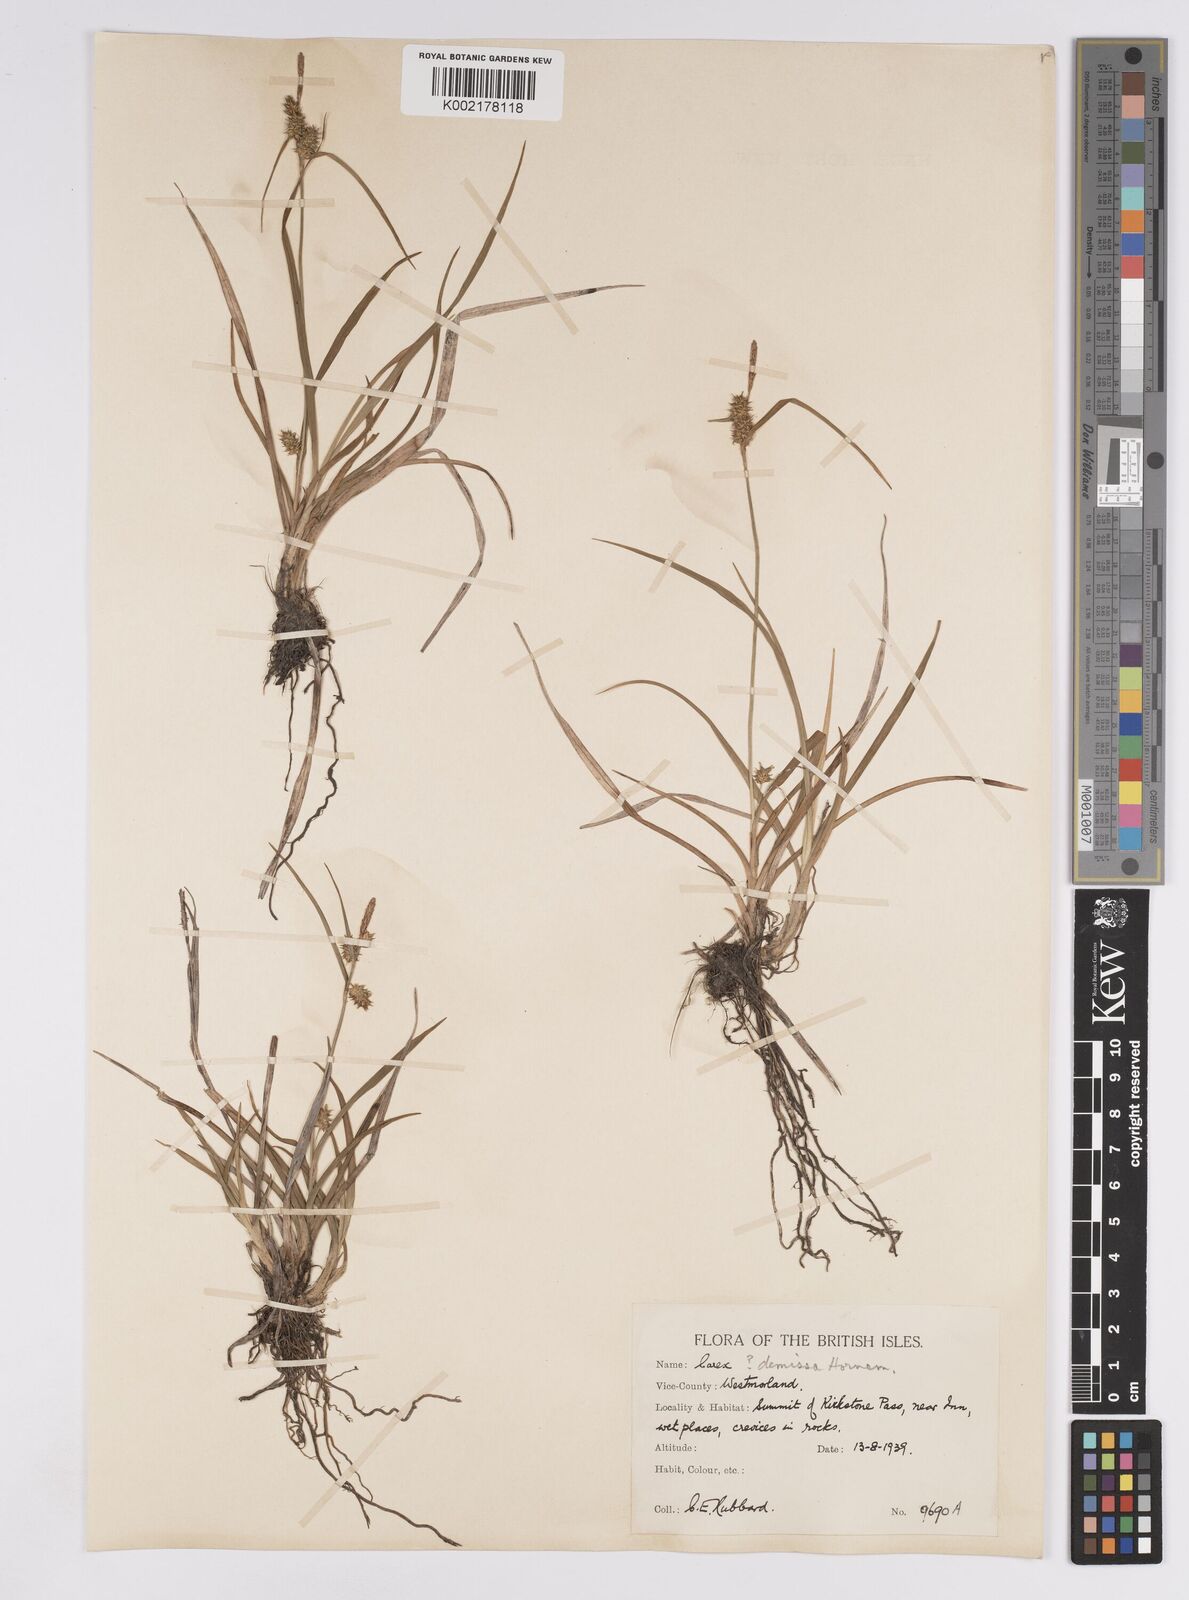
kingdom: Plantae
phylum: Tracheophyta
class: Liliopsida
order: Poales
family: Cyperaceae
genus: Carex
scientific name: Carex demissa
